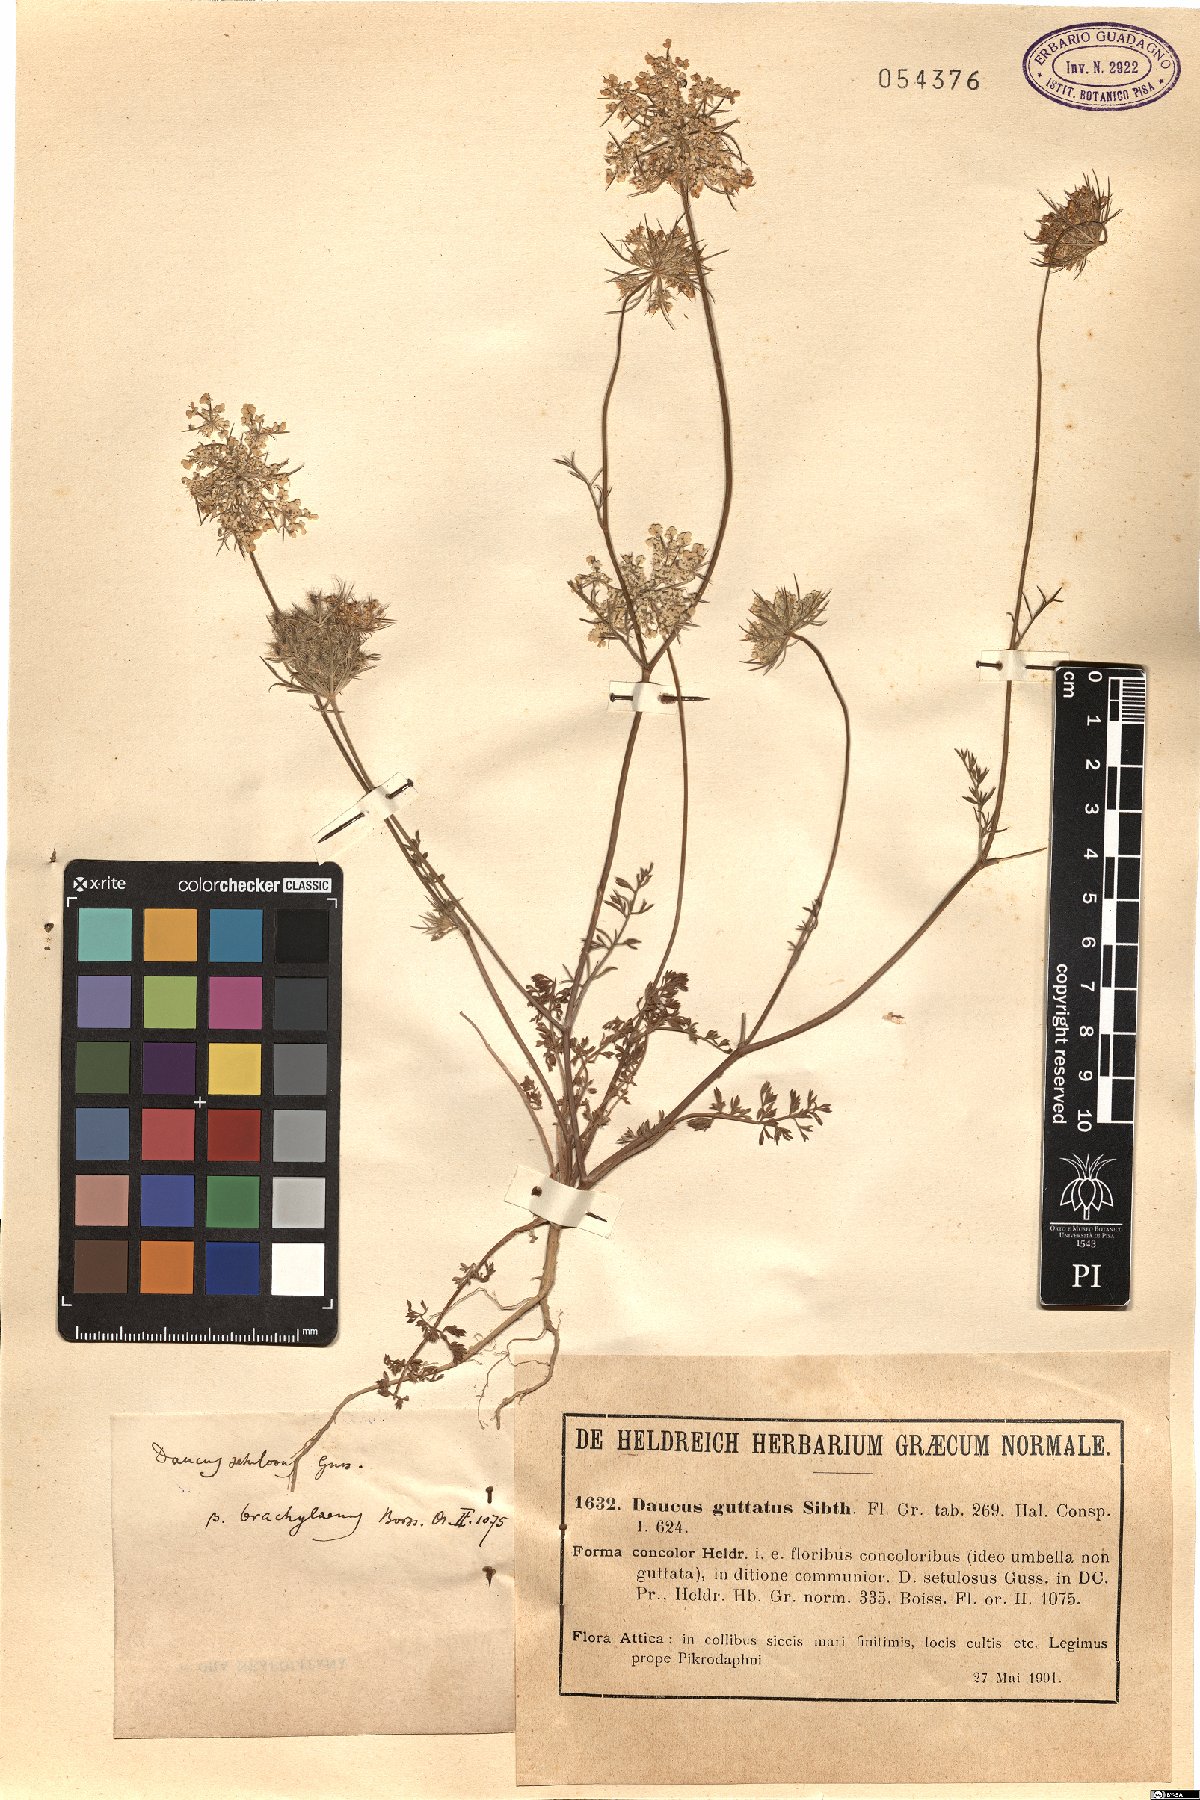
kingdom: Plantae
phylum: Tracheophyta
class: Magnoliopsida
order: Apiales
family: Apiaceae
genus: Daucus
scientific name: Daucus guttatus
